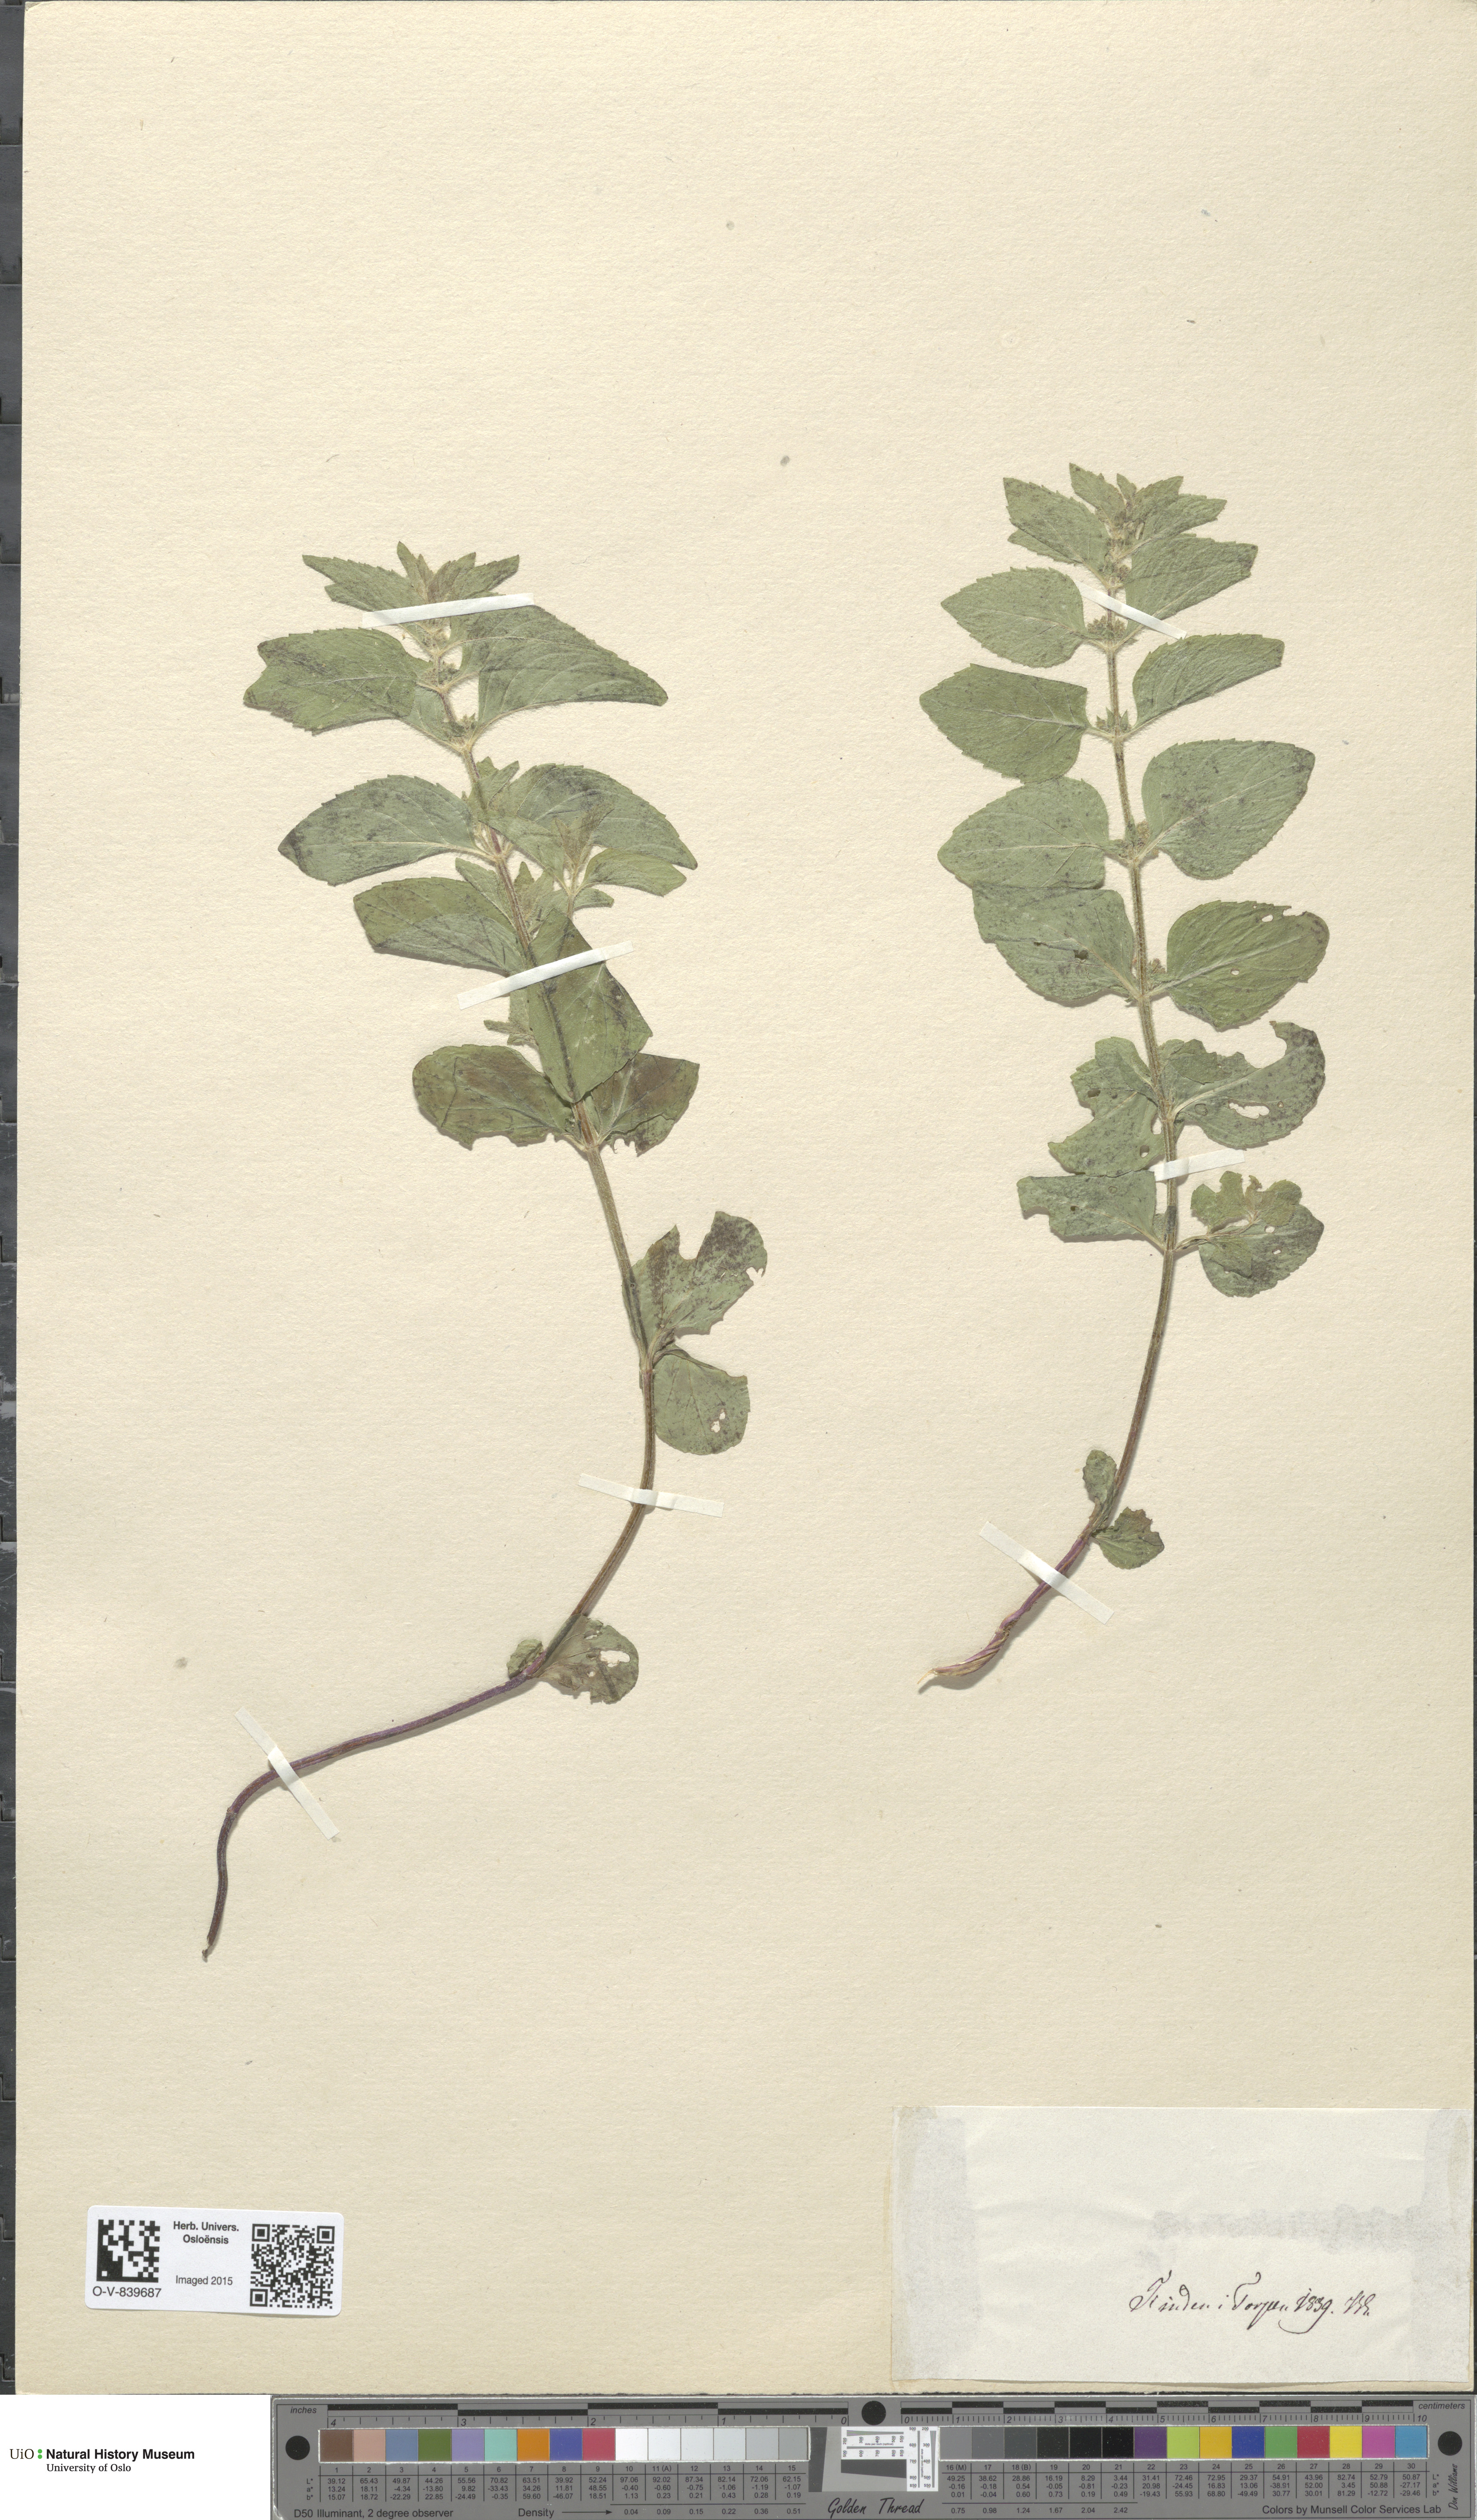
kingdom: Plantae
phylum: Tracheophyta
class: Magnoliopsida
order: Lamiales
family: Lamiaceae
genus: Mentha
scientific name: Mentha arvensis
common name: Corn mint
